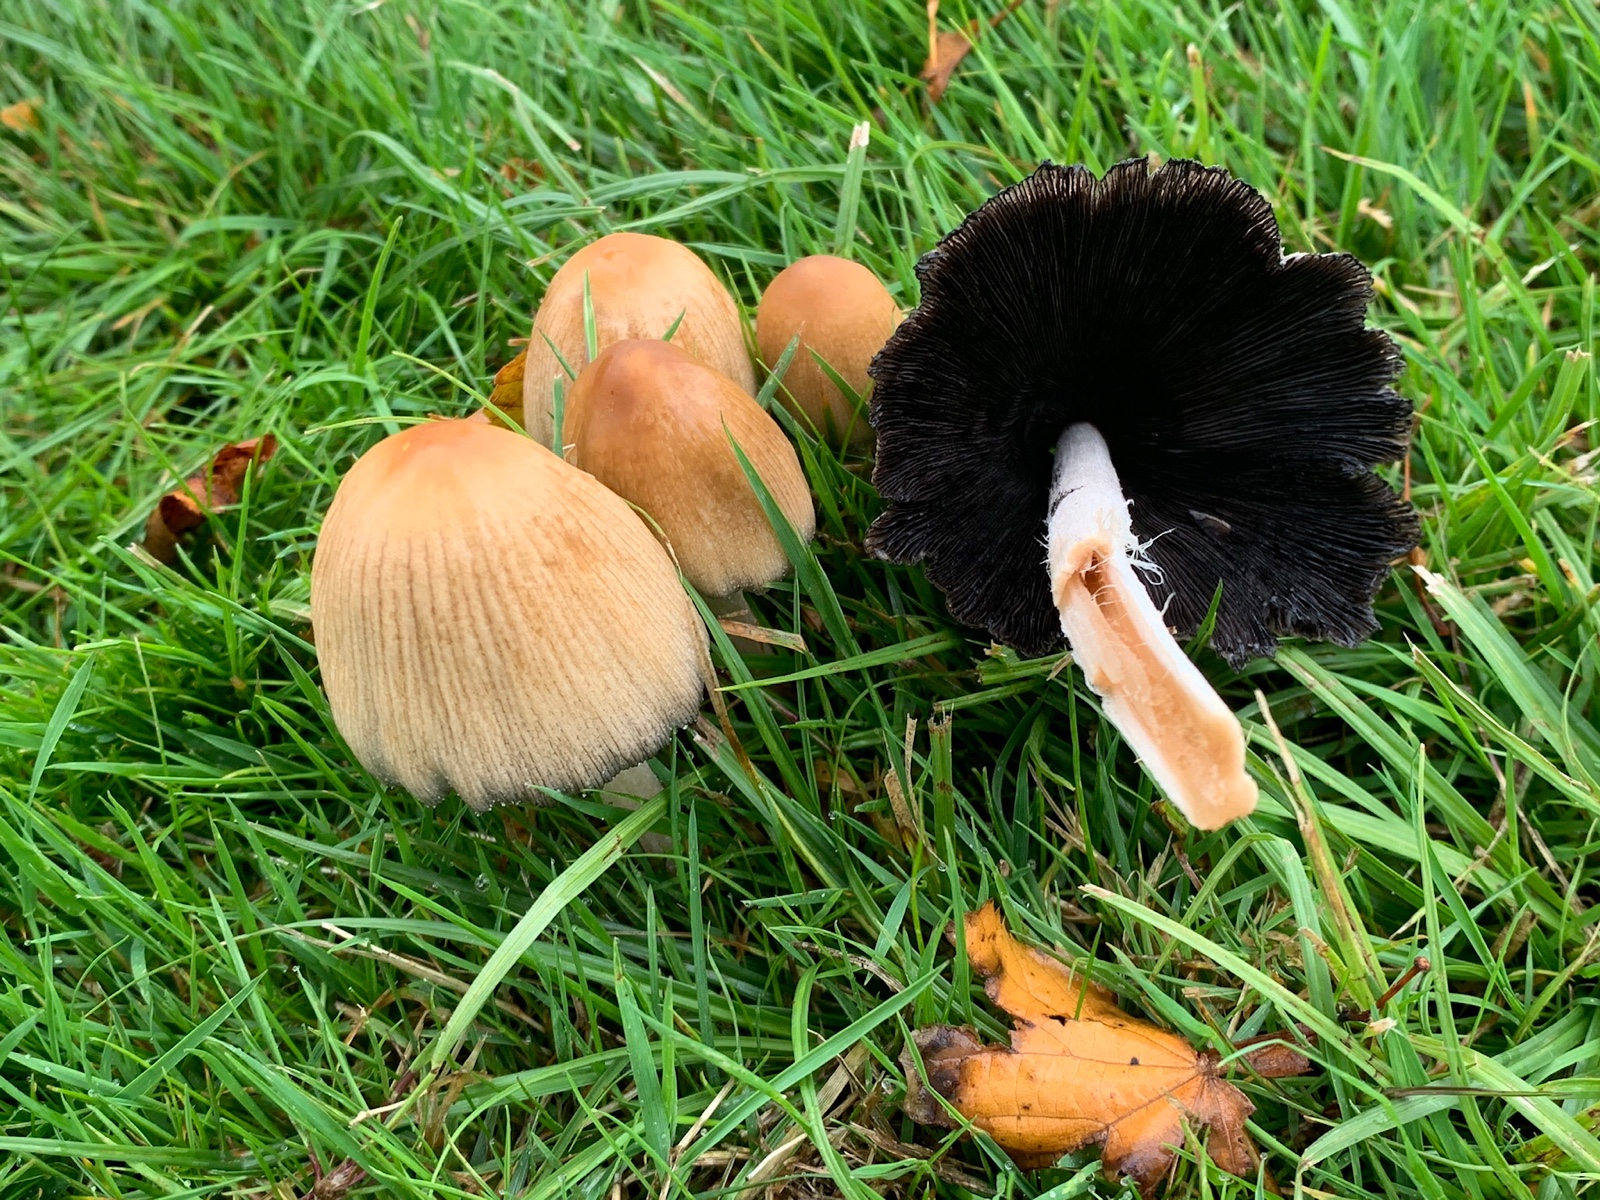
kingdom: Fungi
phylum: Basidiomycota
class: Agaricomycetes
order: Agaricales
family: Psathyrellaceae
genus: Coprinellus
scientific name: Coprinellus micaceus
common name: glimmer-blækhat
